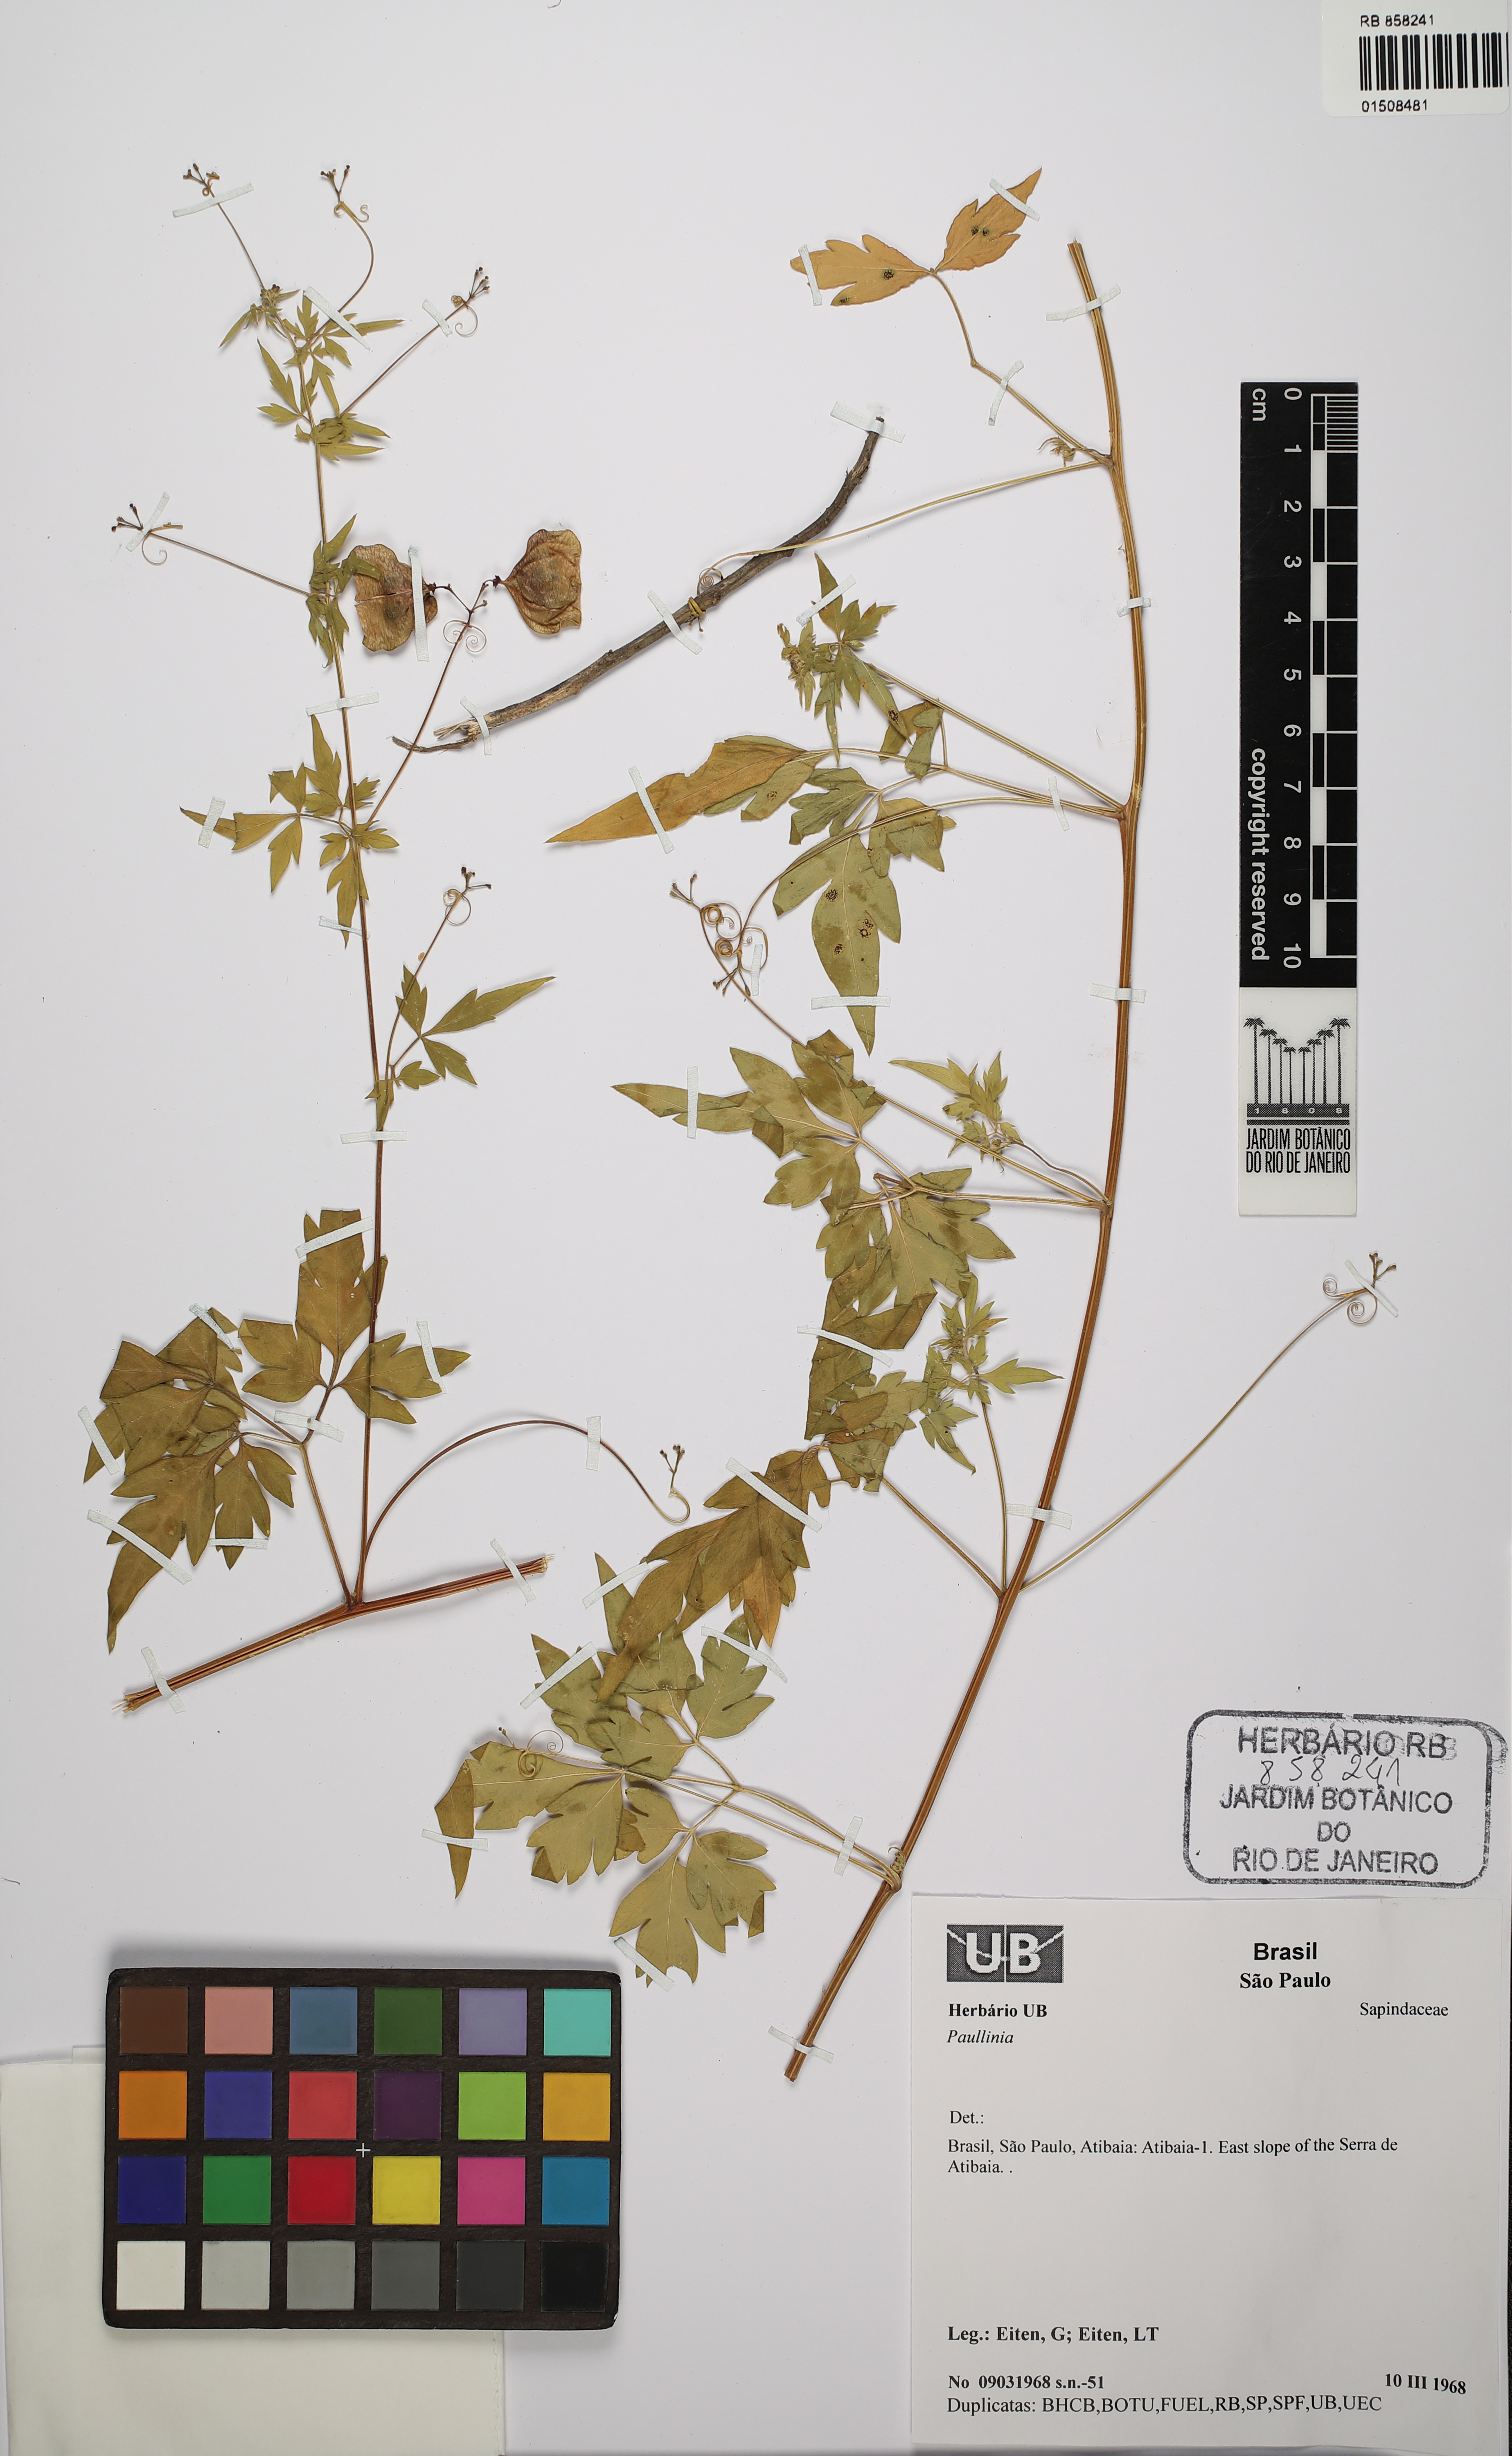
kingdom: Plantae
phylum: Tracheophyta
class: Magnoliopsida
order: Sapindales
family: Sapindaceae
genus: Paullinia
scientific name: Paullinia
